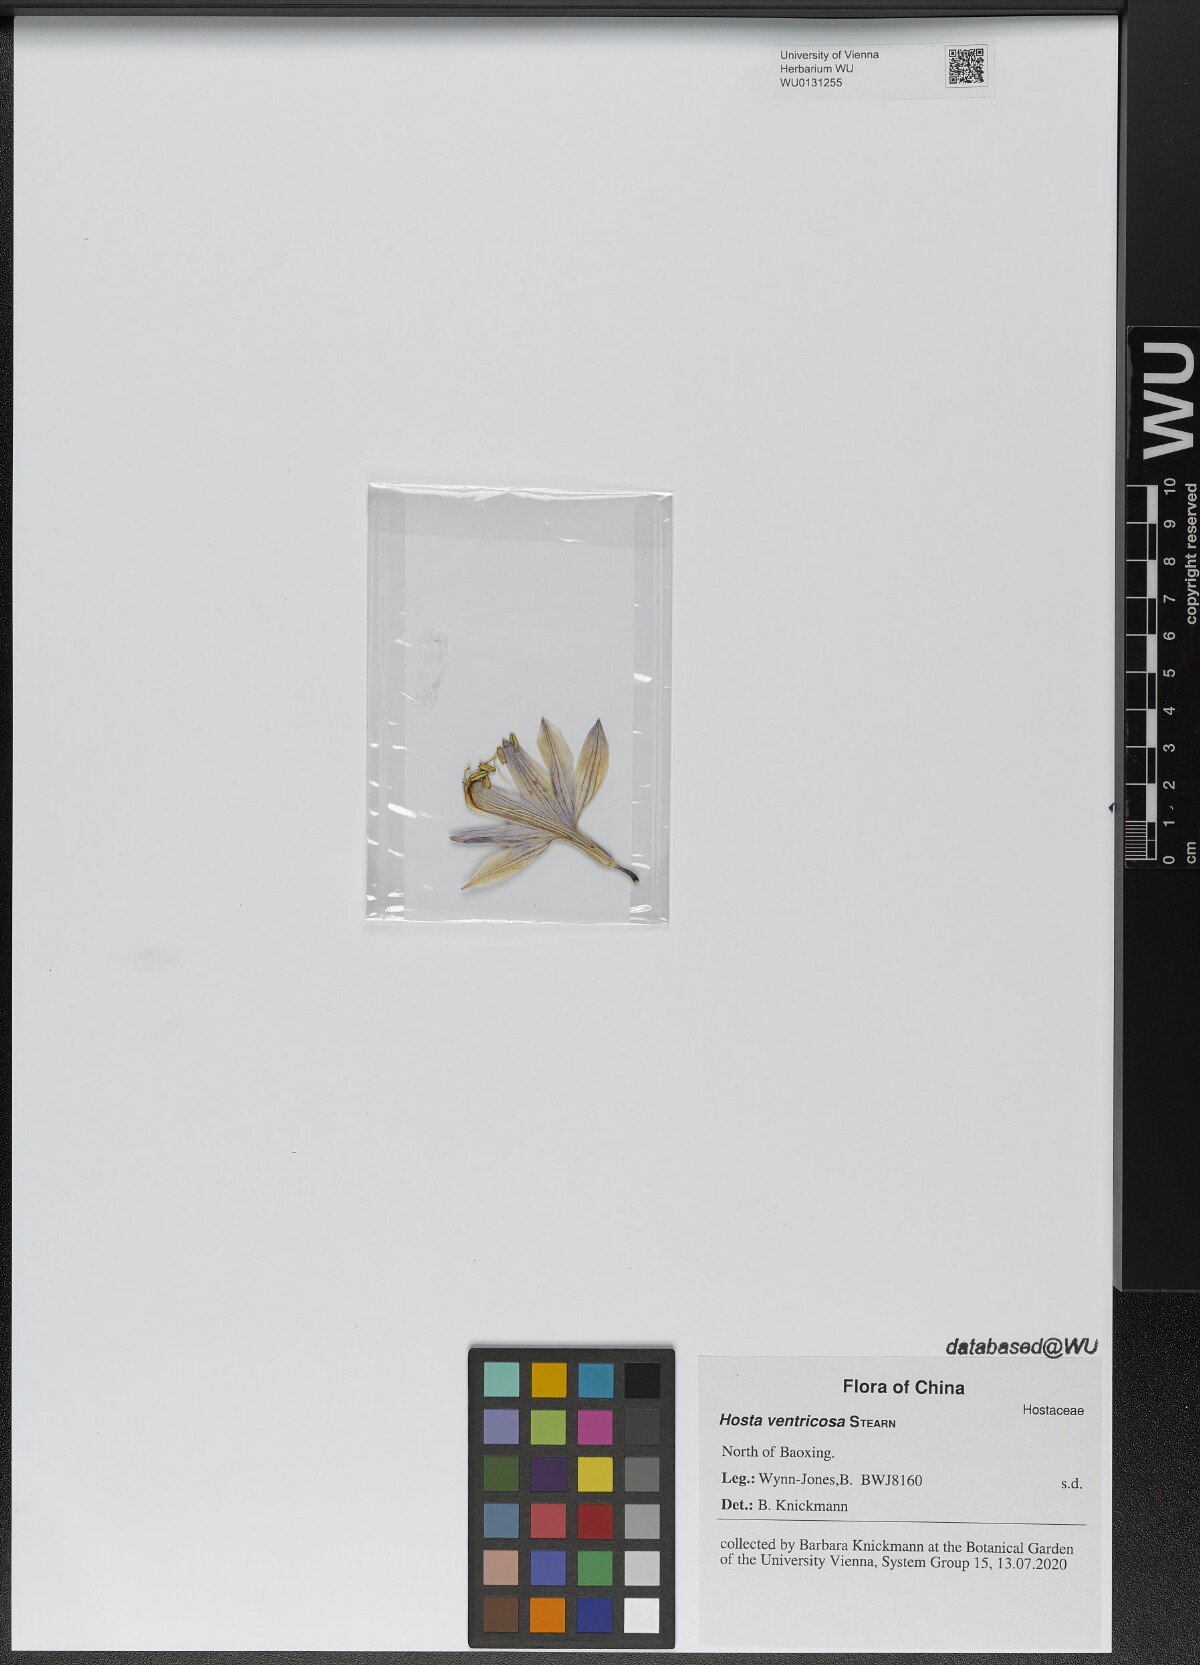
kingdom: Plantae
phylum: Tracheophyta
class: Liliopsida
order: Asparagales
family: Asparagaceae
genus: Hosta
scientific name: Hosta ventricosa
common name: Blue plantain-lily
